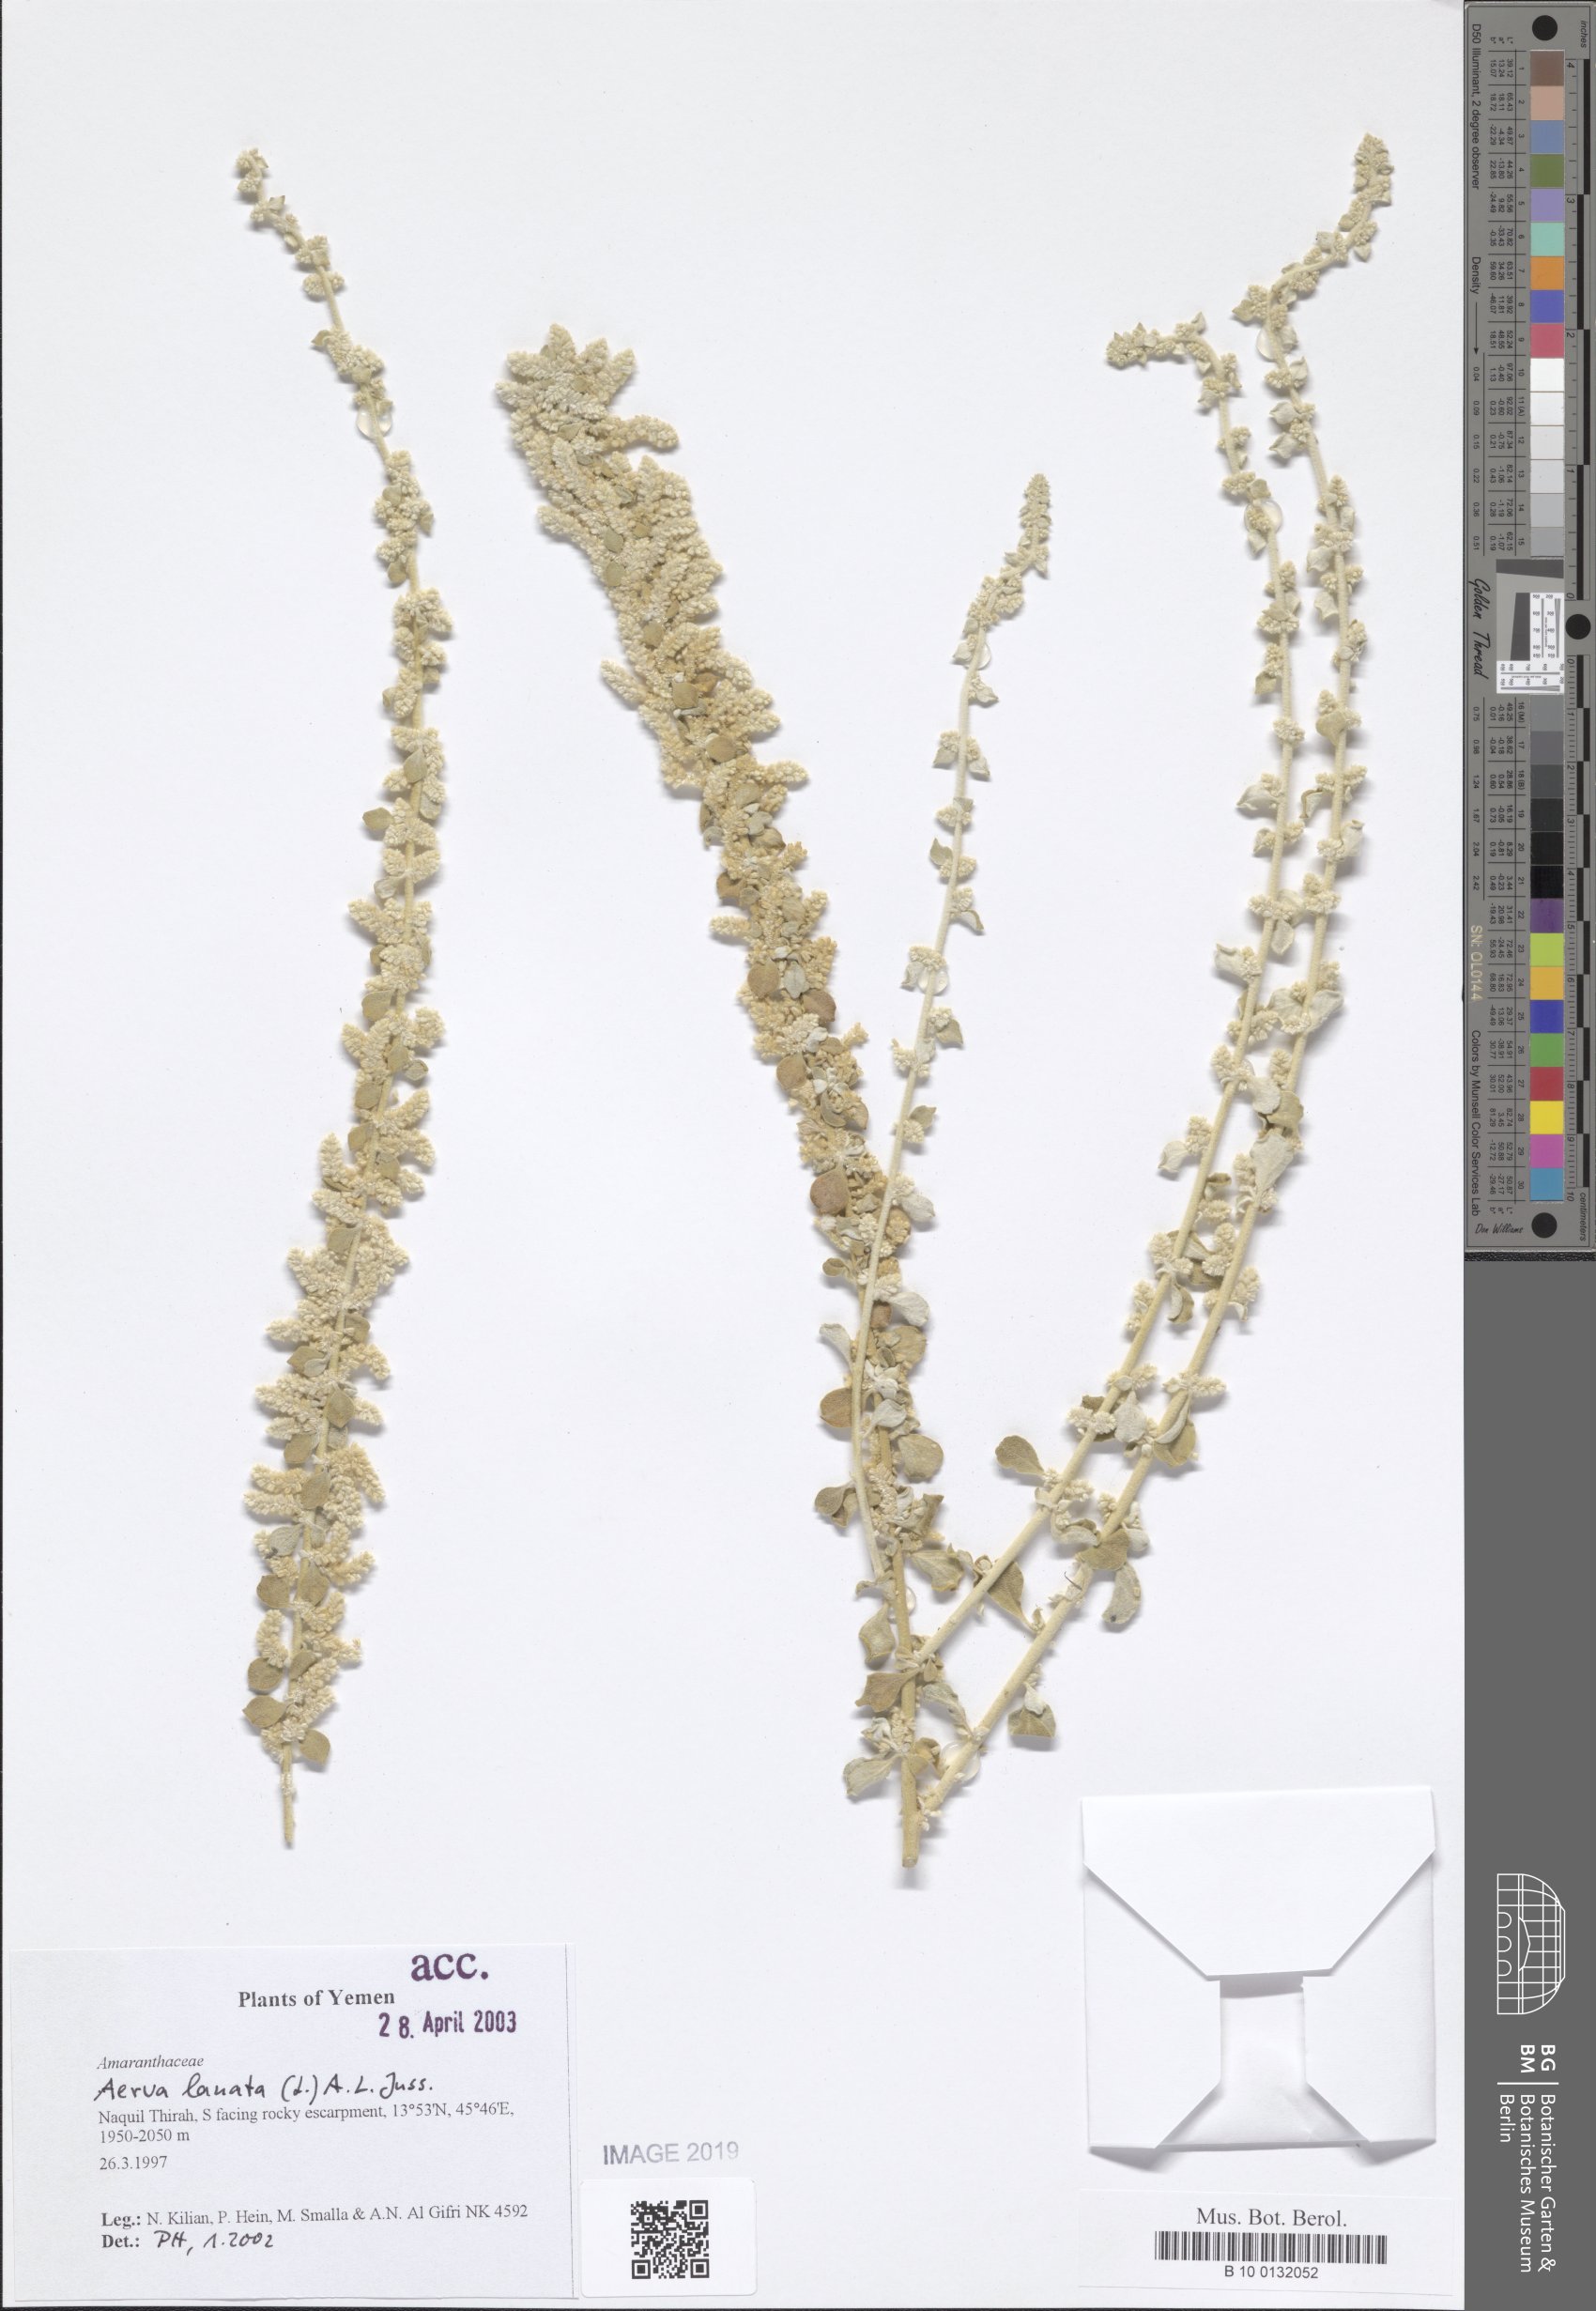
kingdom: Plantae
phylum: Tracheophyta
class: Magnoliopsida
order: Caryophyllales
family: Amaranthaceae
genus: Ouret
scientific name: Ouret lanata
